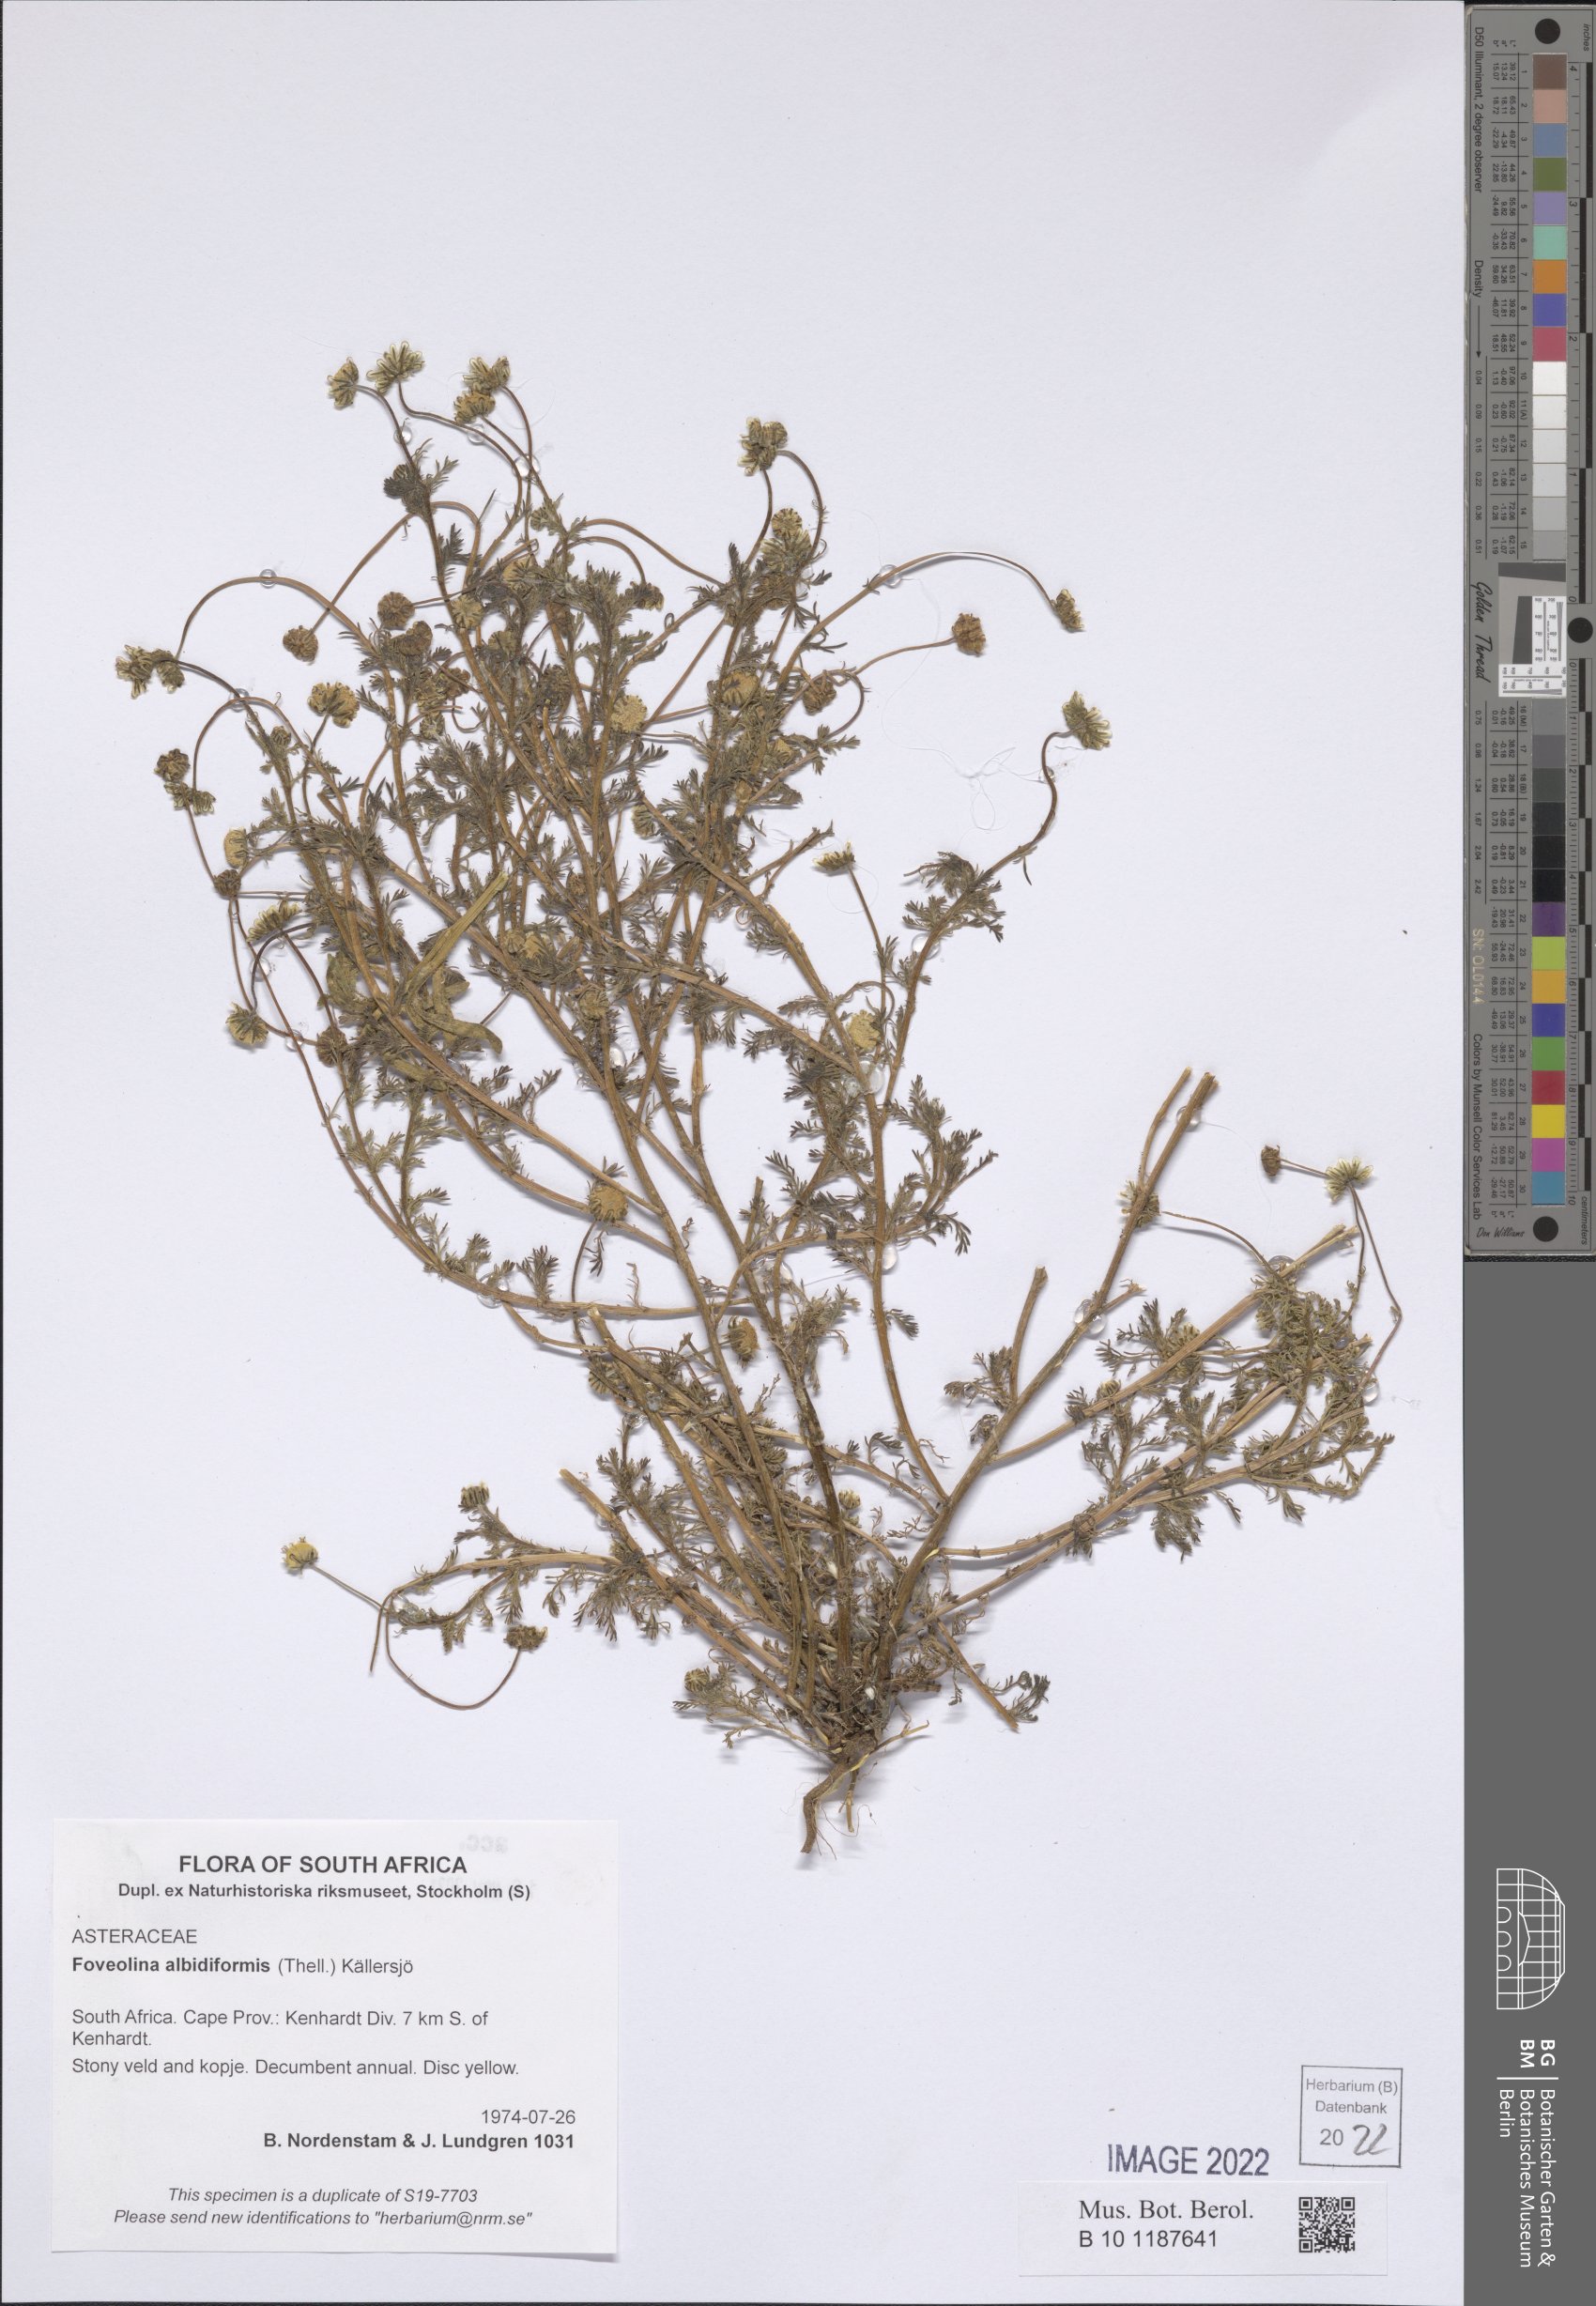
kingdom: Plantae
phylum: Tracheophyta
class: Magnoliopsida
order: Asterales
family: Asteraceae
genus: Foveolina
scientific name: Foveolina albidiformis
